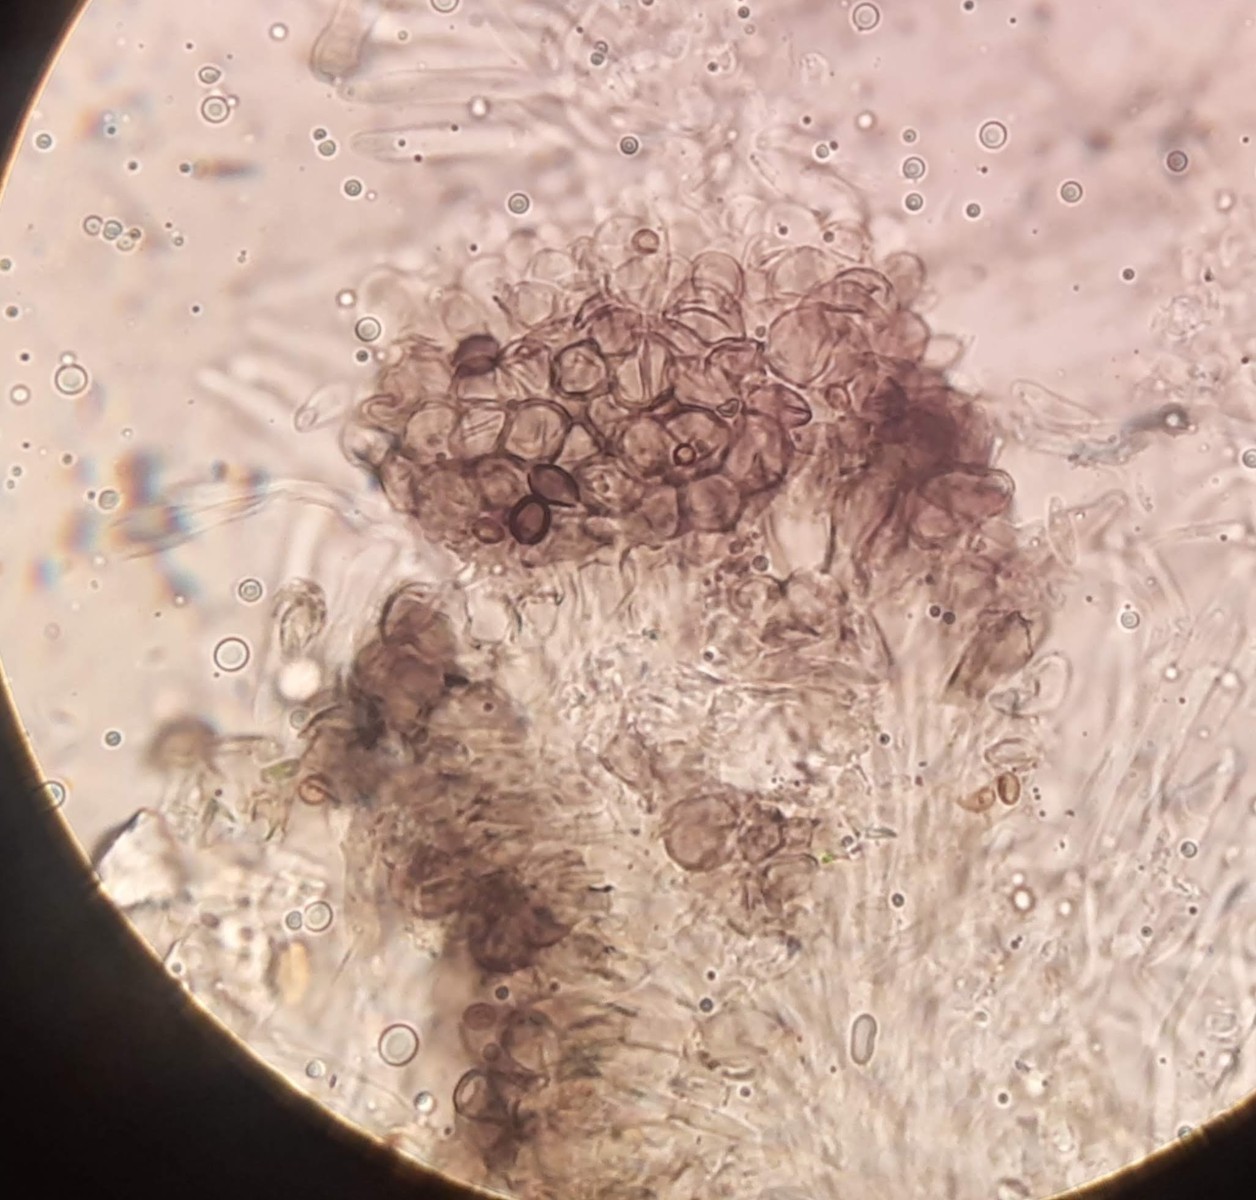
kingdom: Fungi
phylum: Ascomycota
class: Leotiomycetes
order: Helotiales
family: Mollisiaceae
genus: Mollisia
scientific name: Mollisia
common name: gråskive
